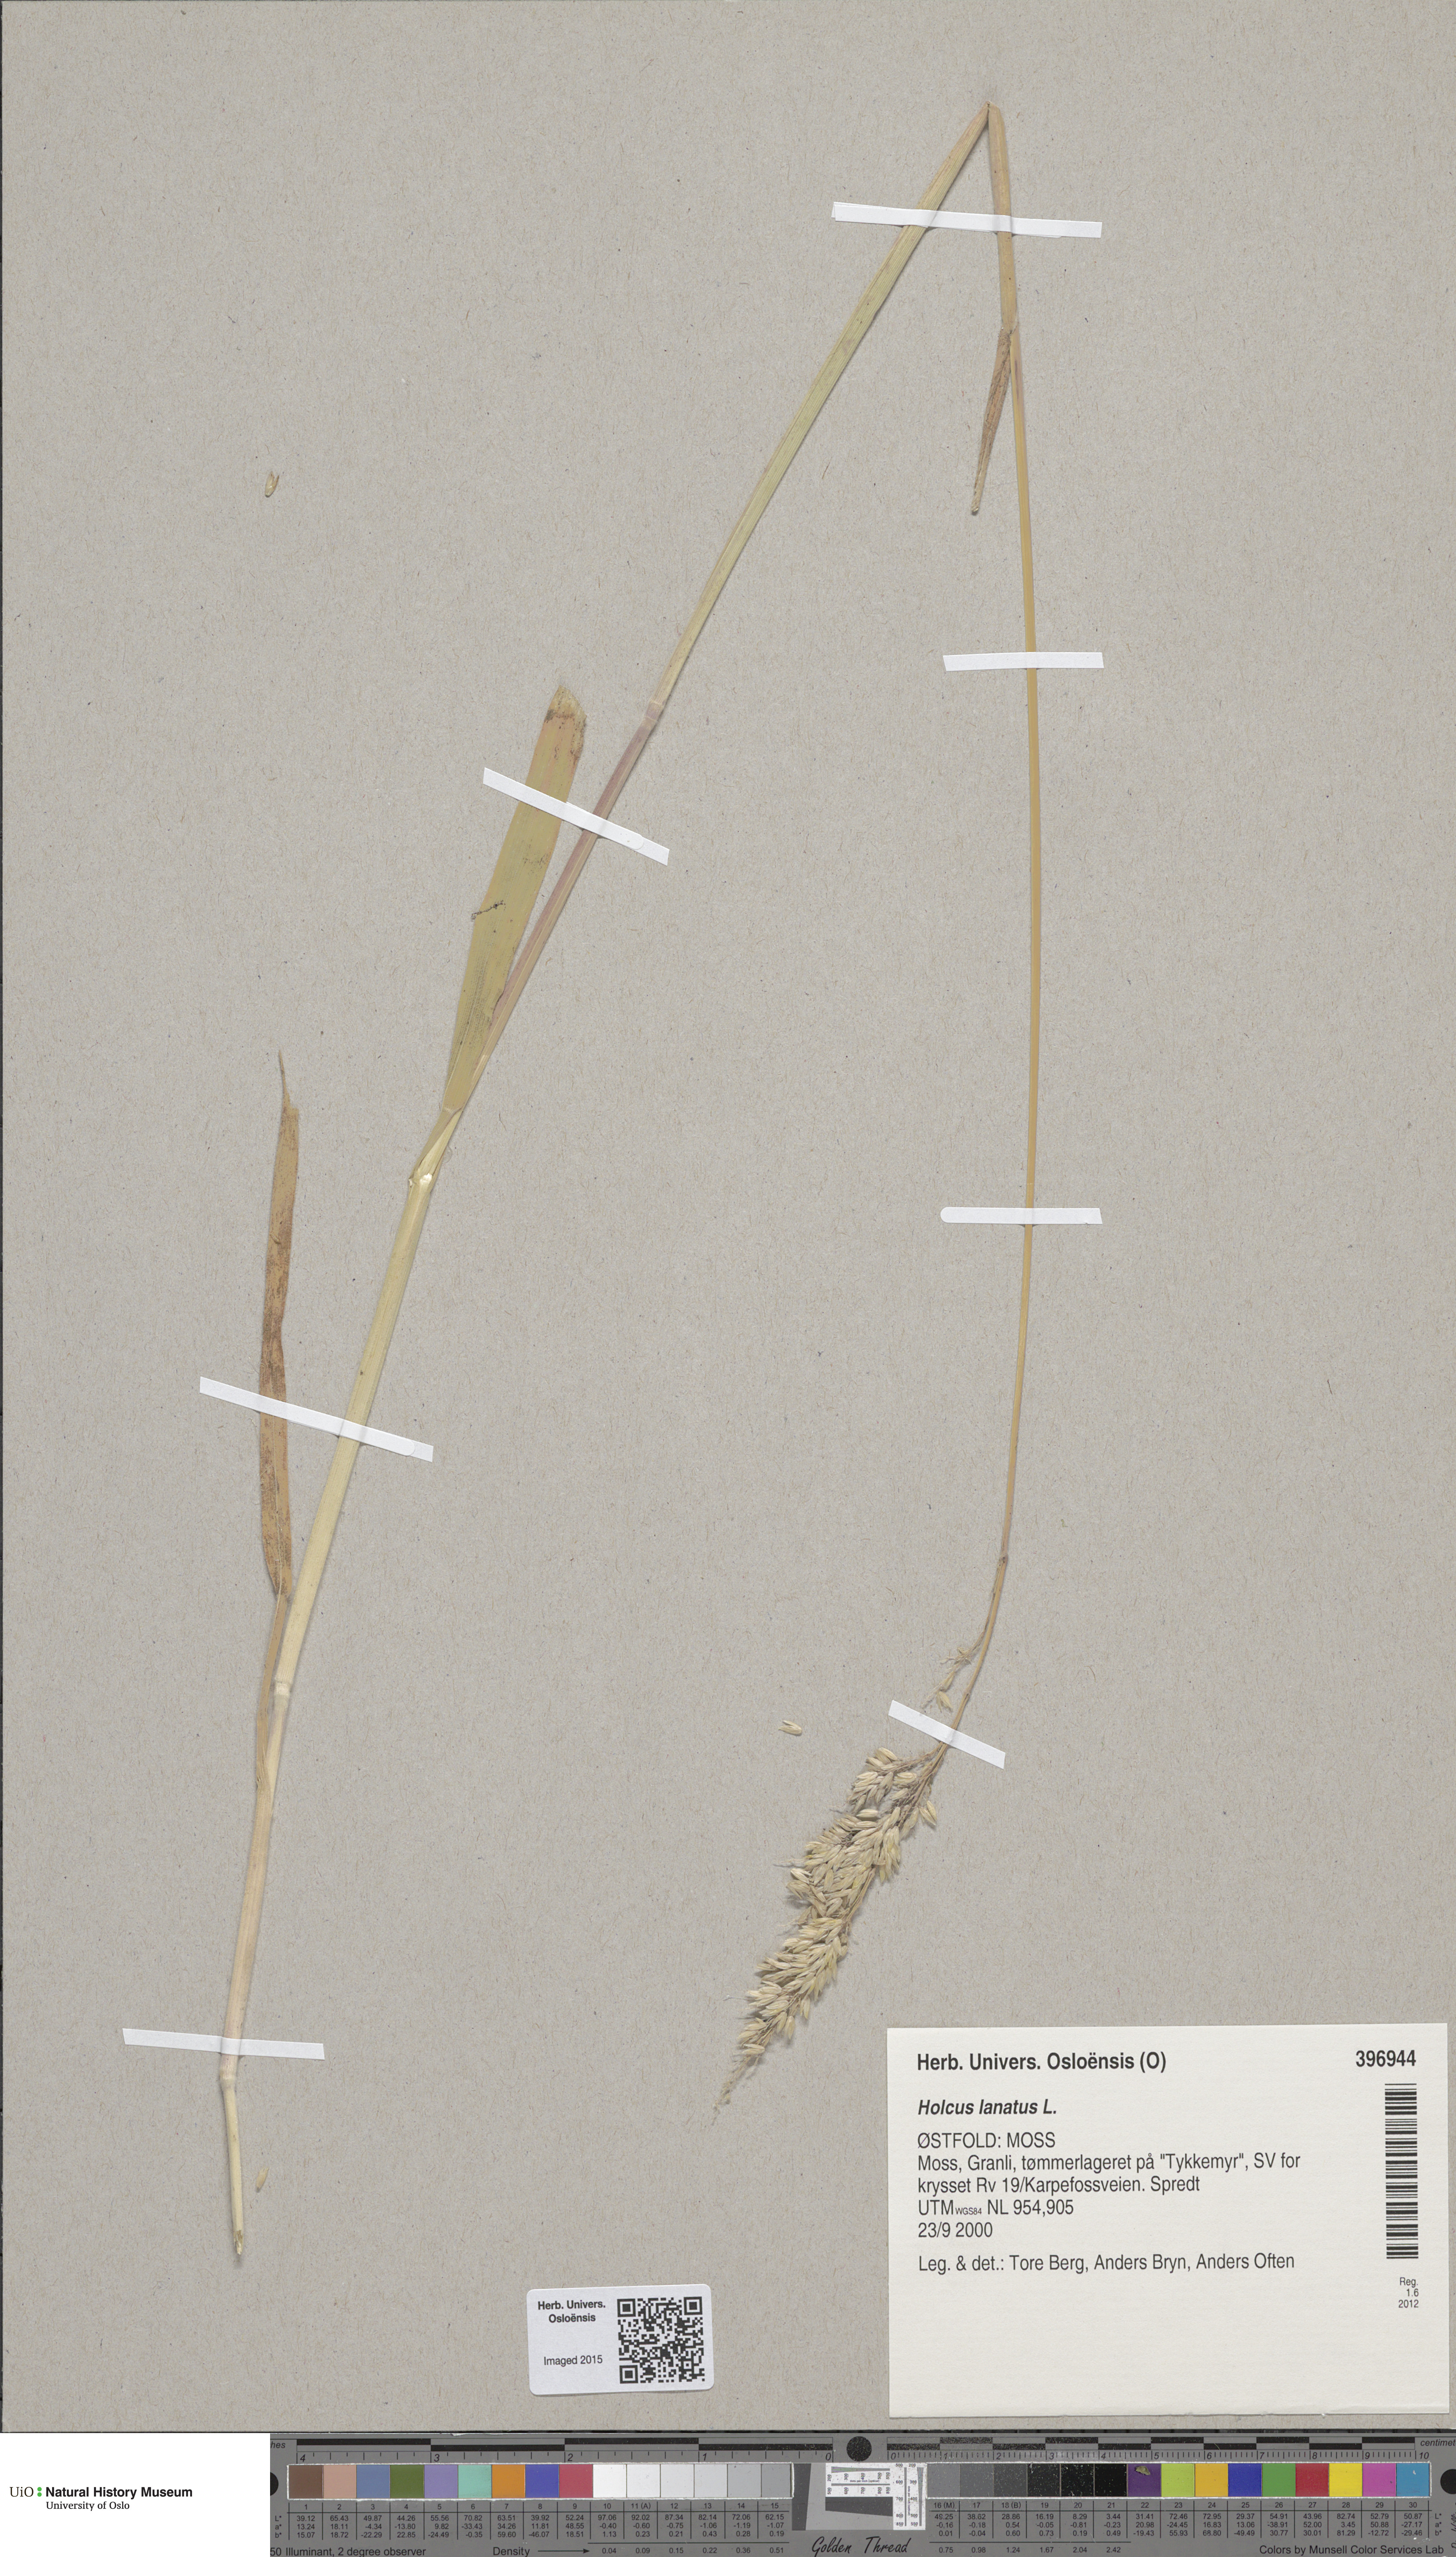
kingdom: Plantae
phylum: Tracheophyta
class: Liliopsida
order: Poales
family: Poaceae
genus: Holcus
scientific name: Holcus lanatus
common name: Yorkshire-fog
